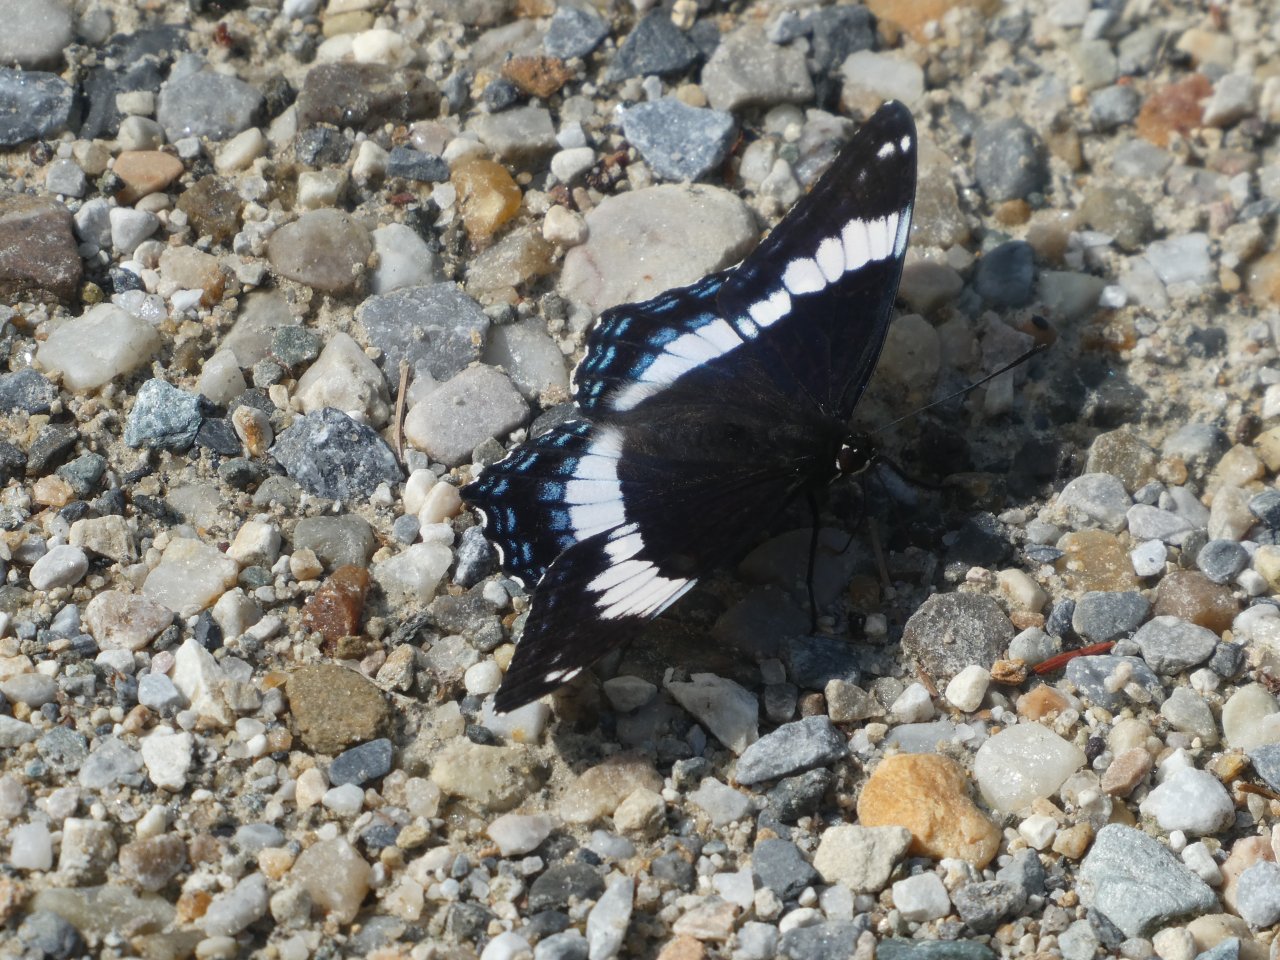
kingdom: Animalia
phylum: Arthropoda
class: Insecta
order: Lepidoptera
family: Nymphalidae
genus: Limenitis
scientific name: Limenitis arthemis
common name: Red-spotted Admiral
